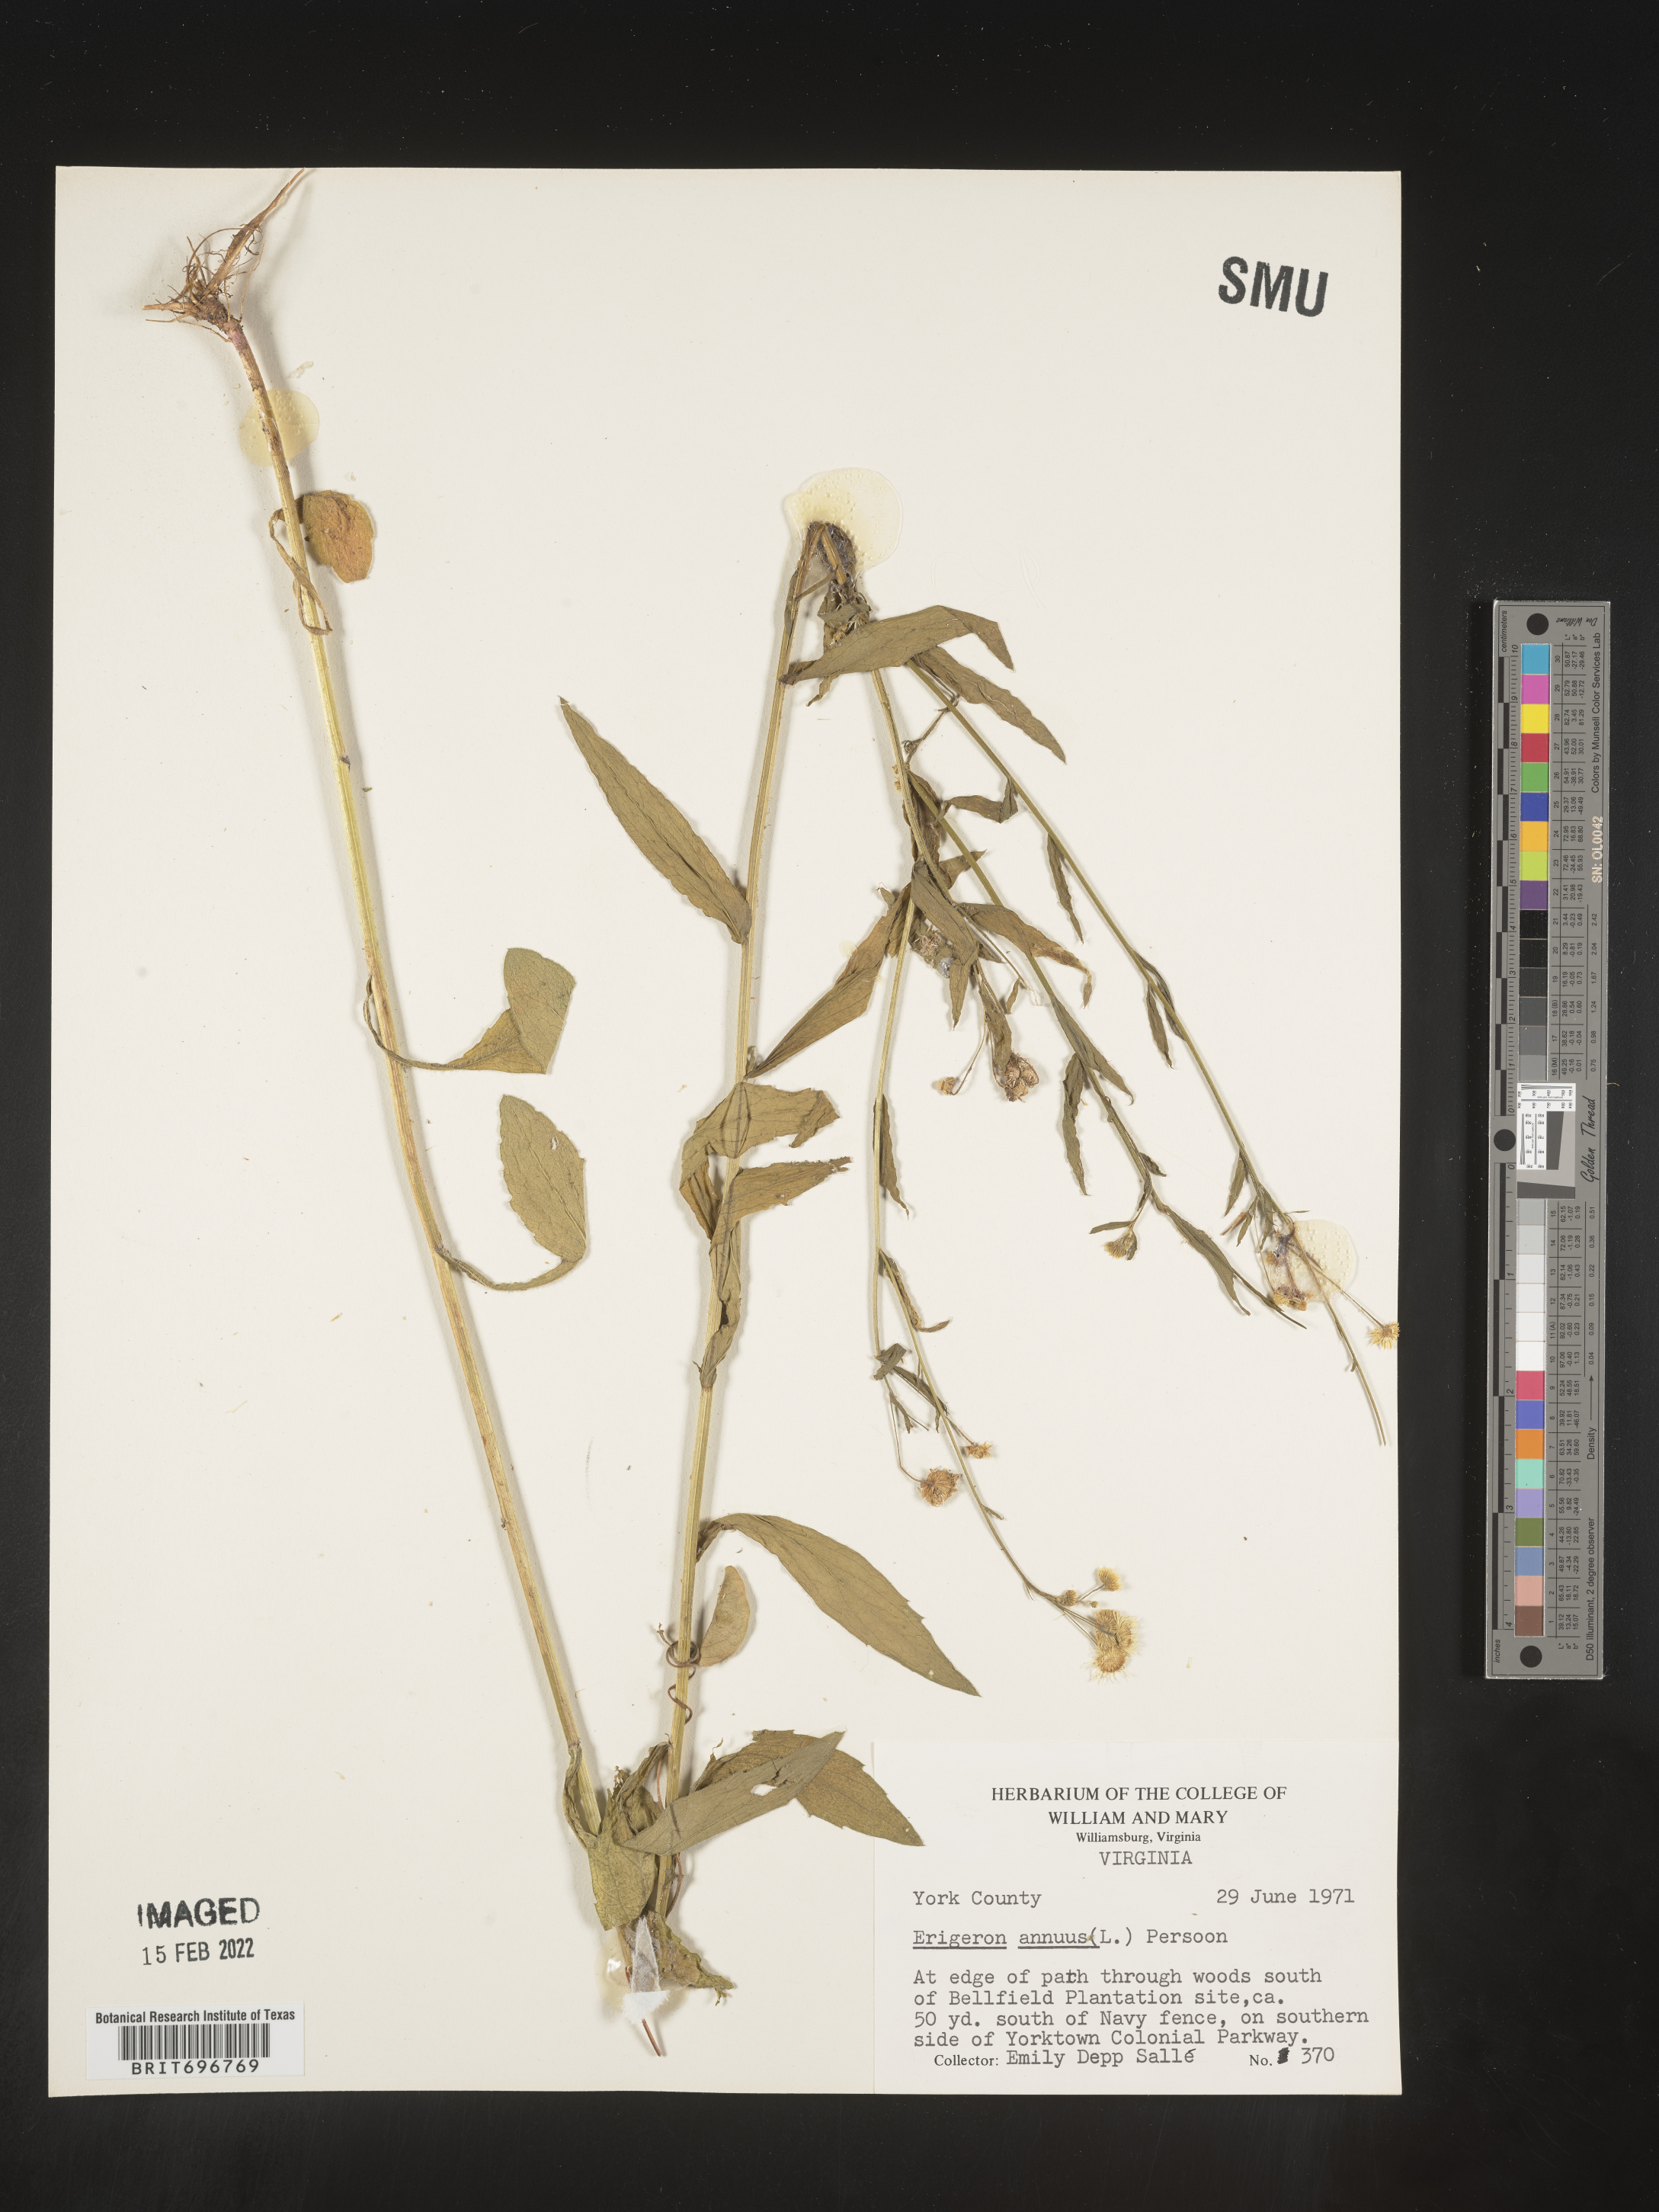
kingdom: Plantae
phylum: Tracheophyta
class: Magnoliopsida
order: Asterales
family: Asteraceae
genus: Erigeron
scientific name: Erigeron annuus
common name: Tall fleabane
